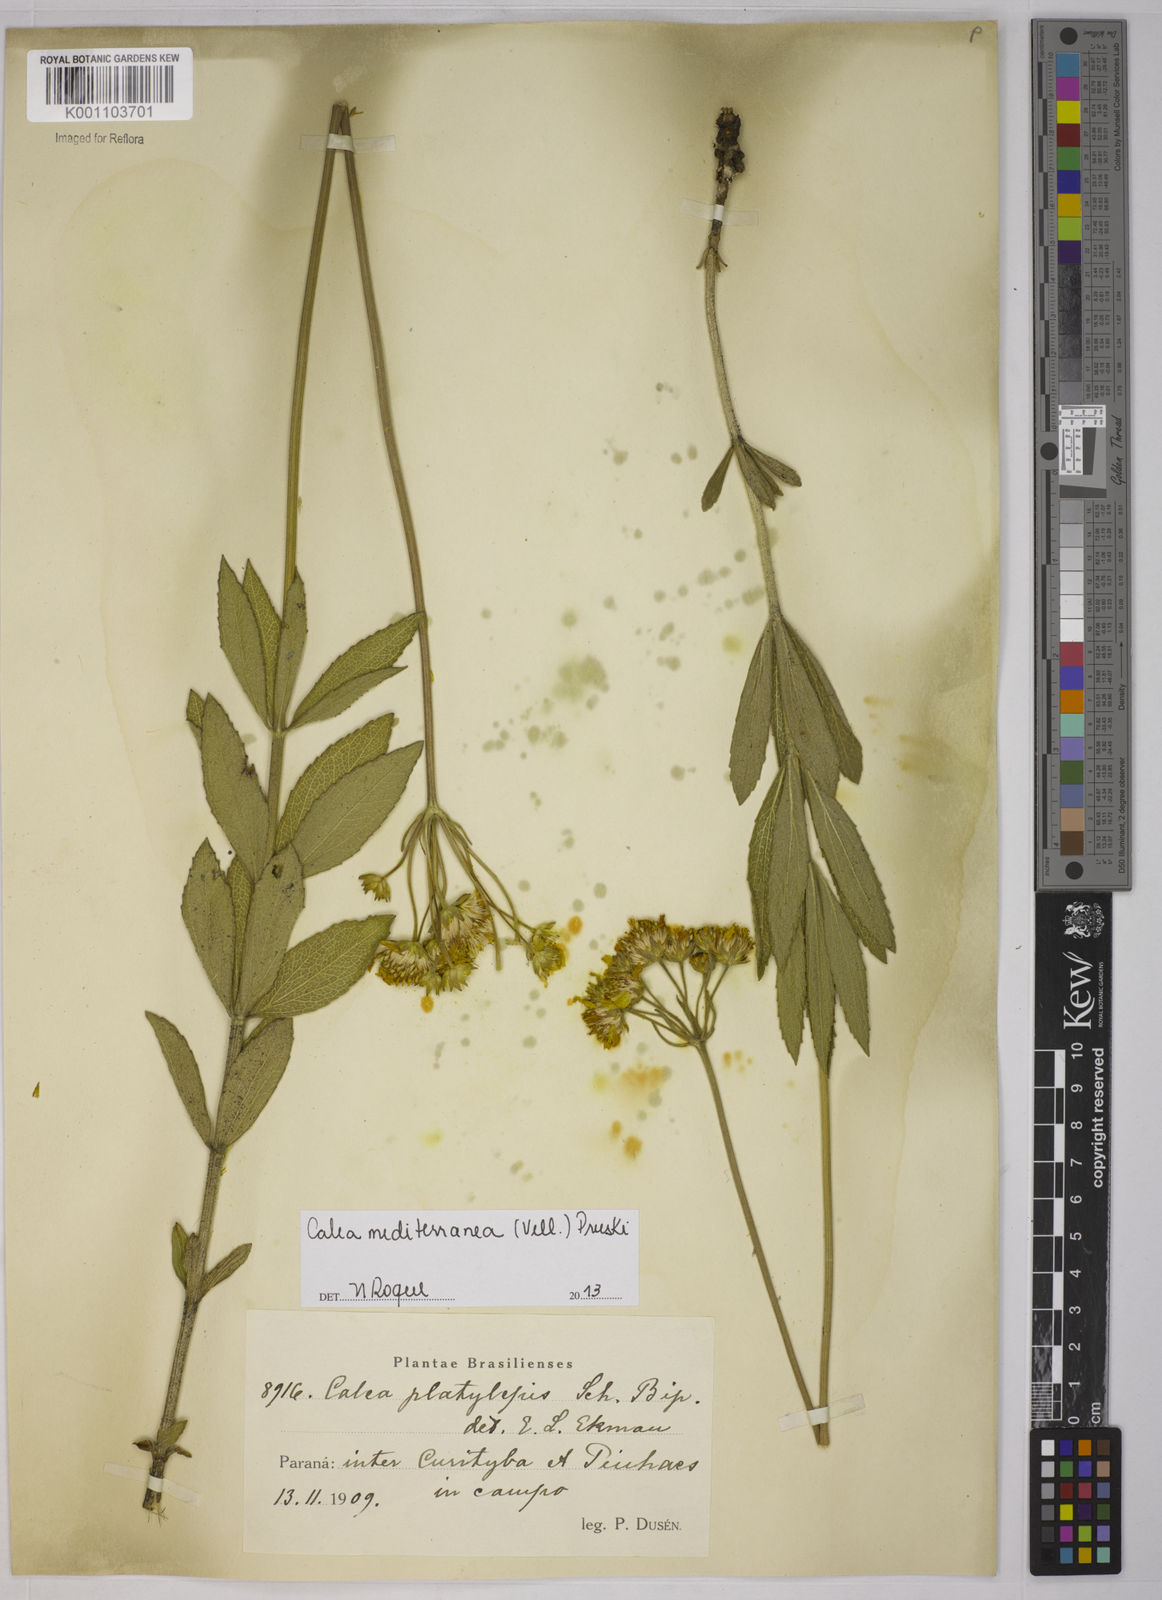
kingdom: Plantae
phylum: Tracheophyta
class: Magnoliopsida
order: Asterales
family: Asteraceae
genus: Calea
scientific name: Calea mediterranea
